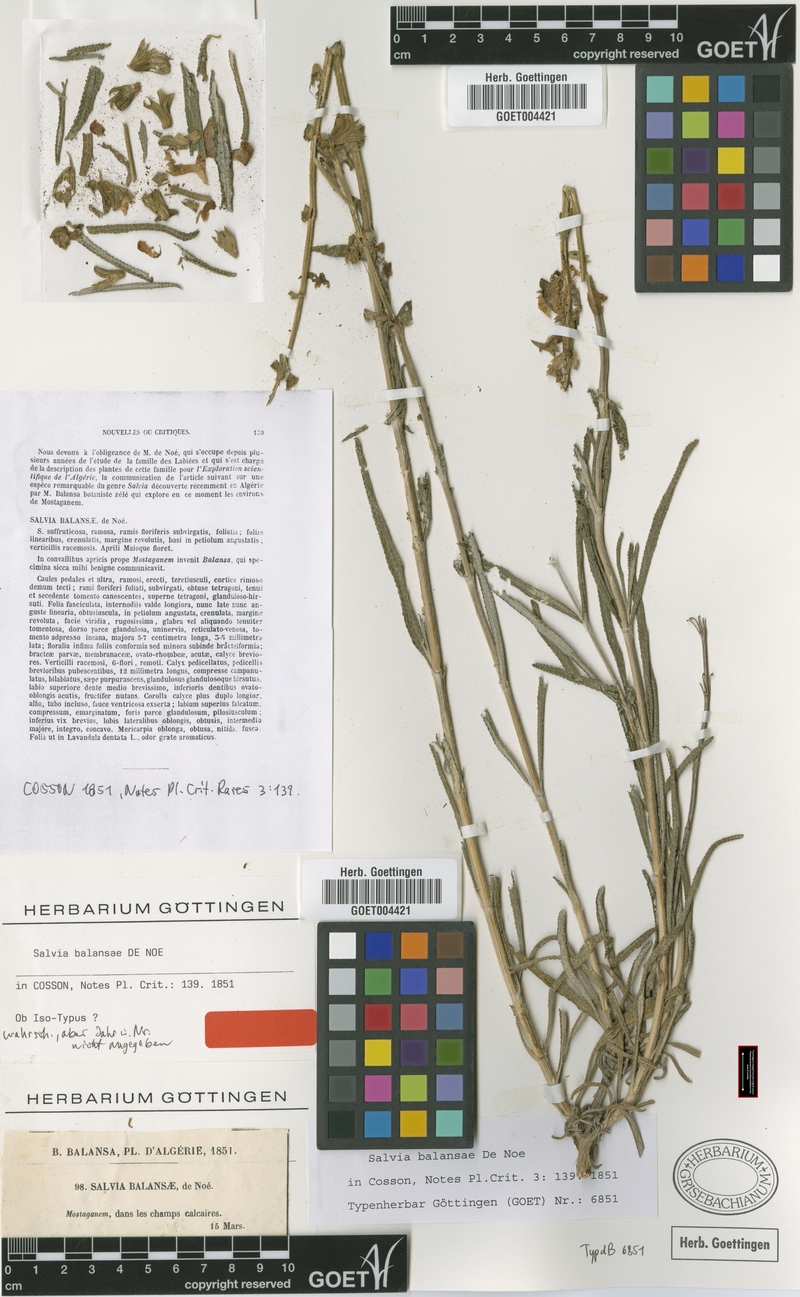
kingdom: Plantae
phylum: Tracheophyta
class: Magnoliopsida
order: Lamiales
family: Lamiaceae
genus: Salvia
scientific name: Salvia balansae
